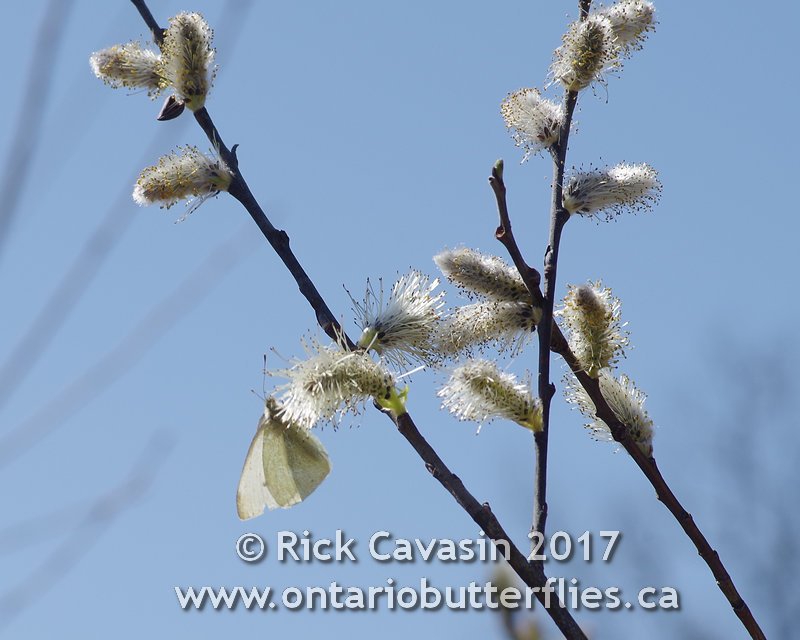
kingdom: Animalia
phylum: Arthropoda
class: Insecta
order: Lepidoptera
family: Pieridae
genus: Pieris
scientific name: Pieris rapae
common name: Cabbage White
